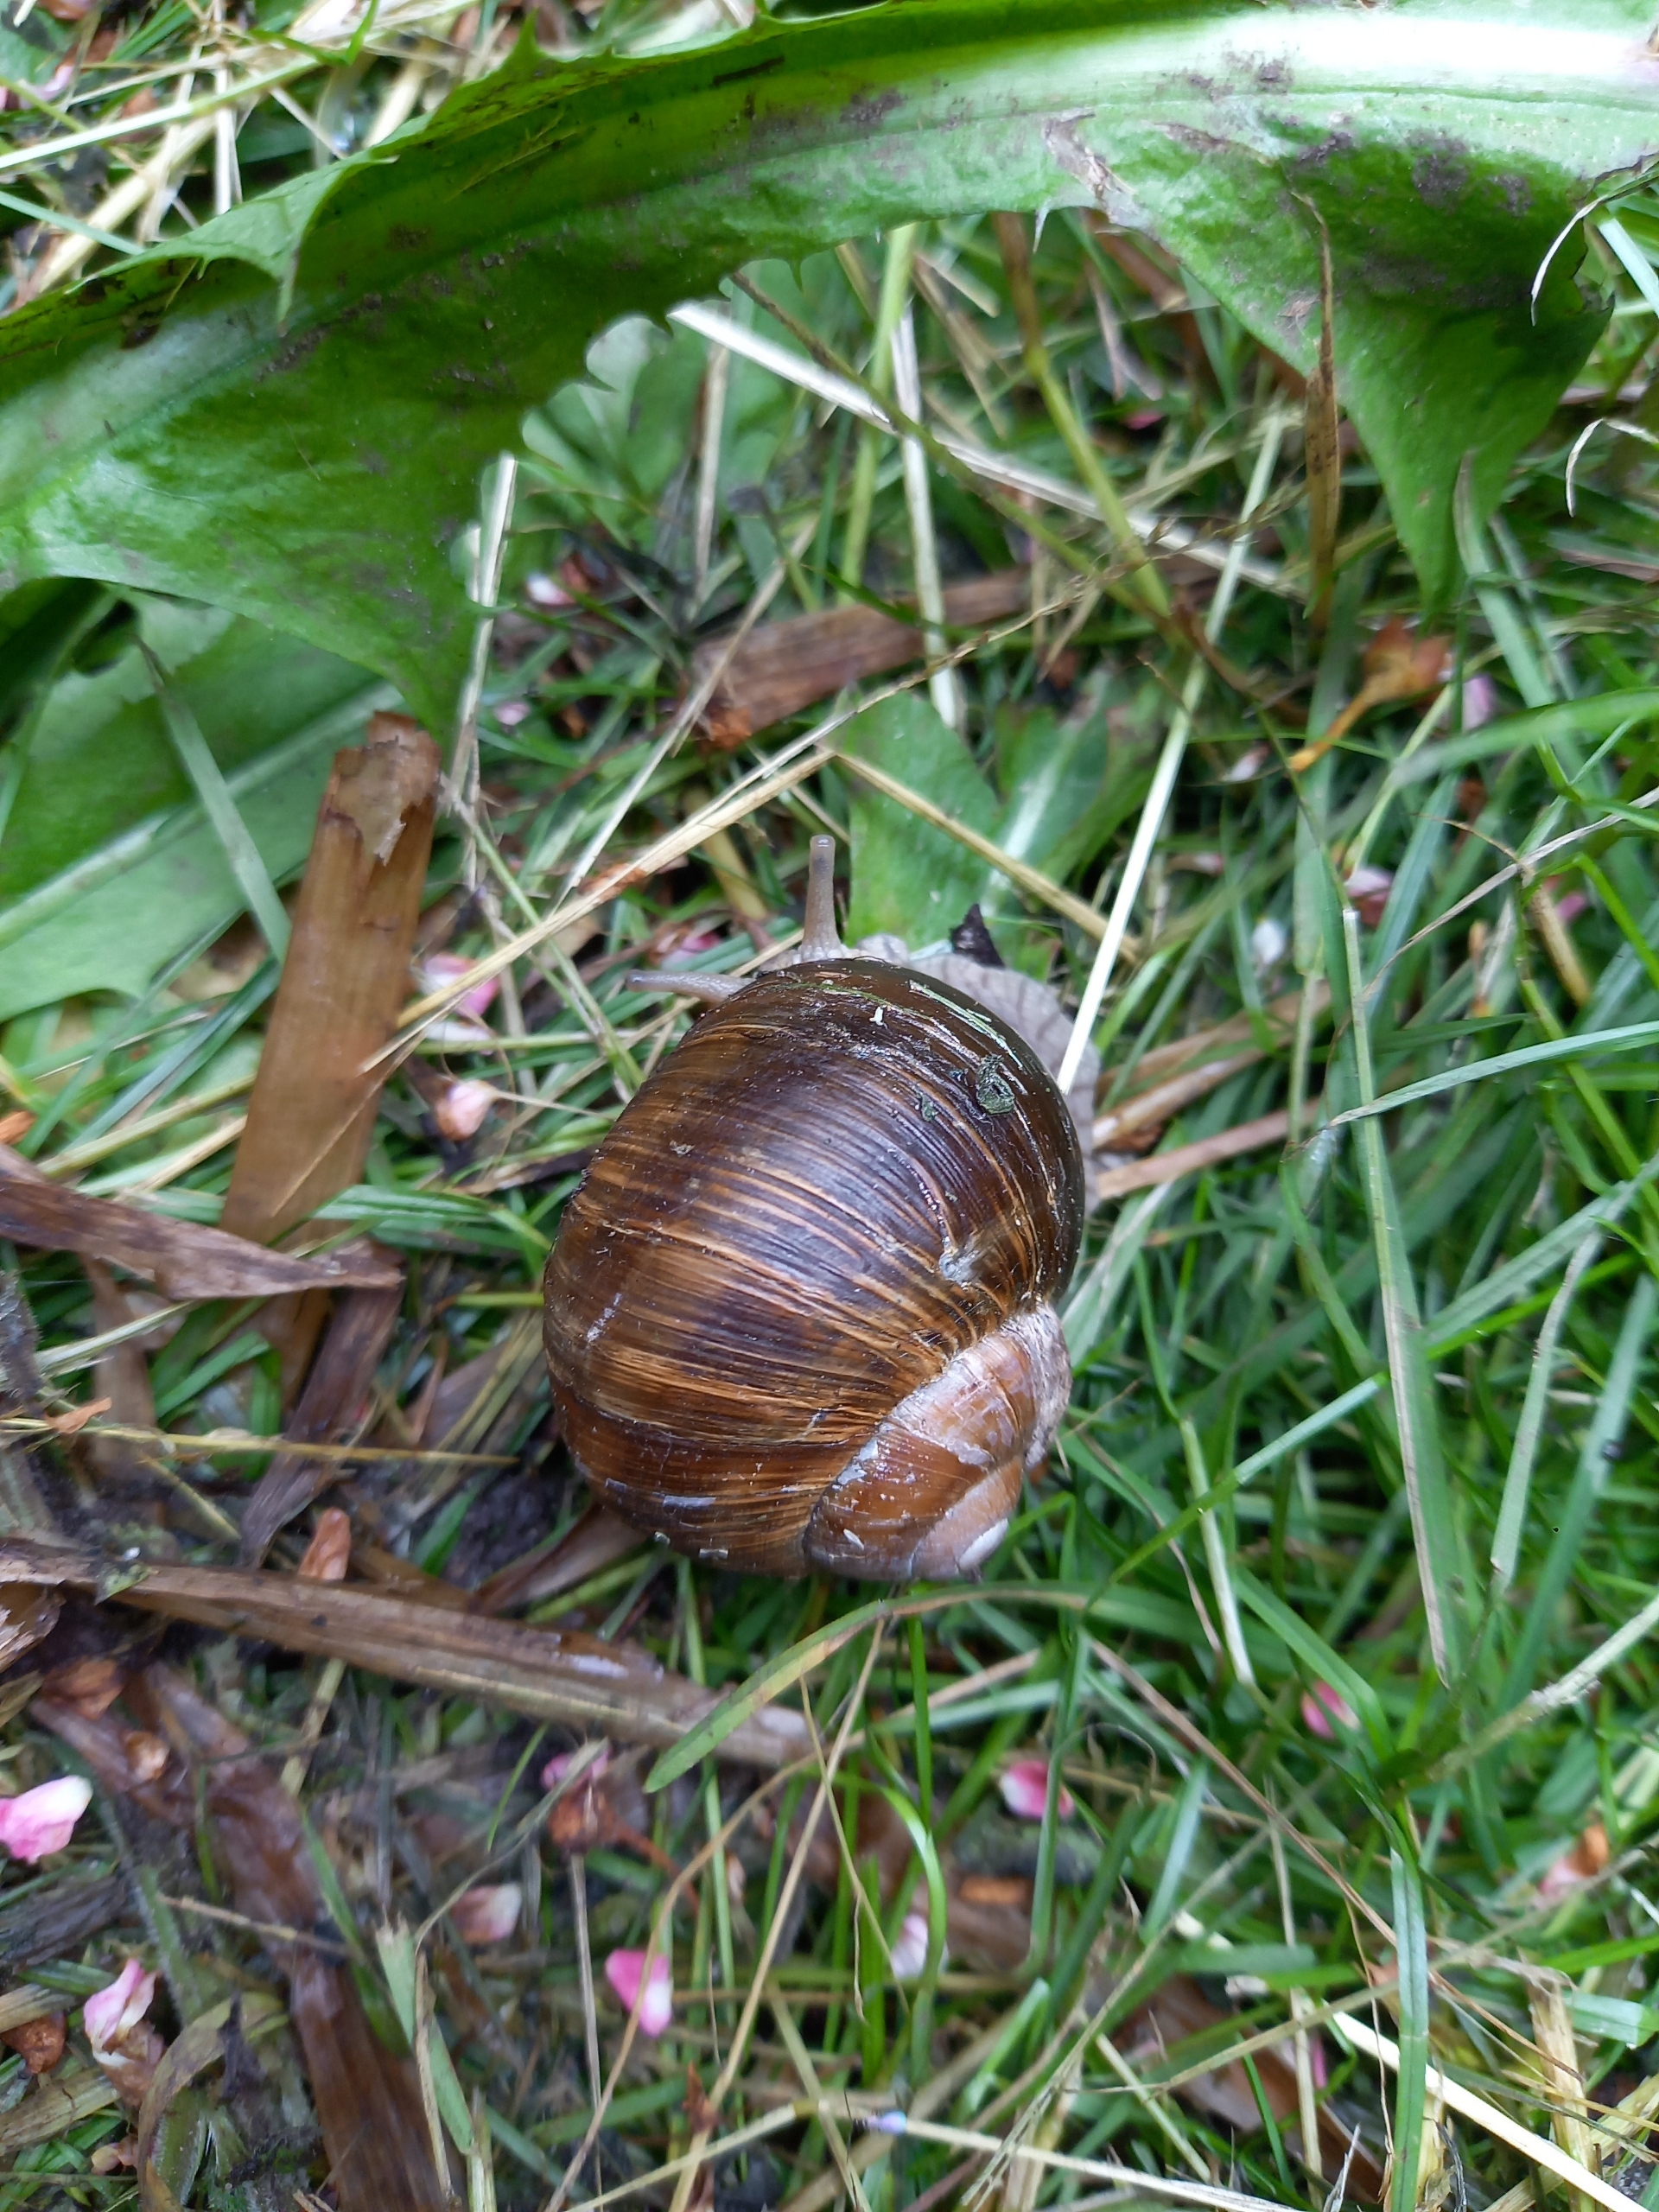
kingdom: Animalia
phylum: Mollusca
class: Gastropoda
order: Stylommatophora
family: Helicidae
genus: Helix
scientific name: Helix pomatia
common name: Vinbjergsnegl
